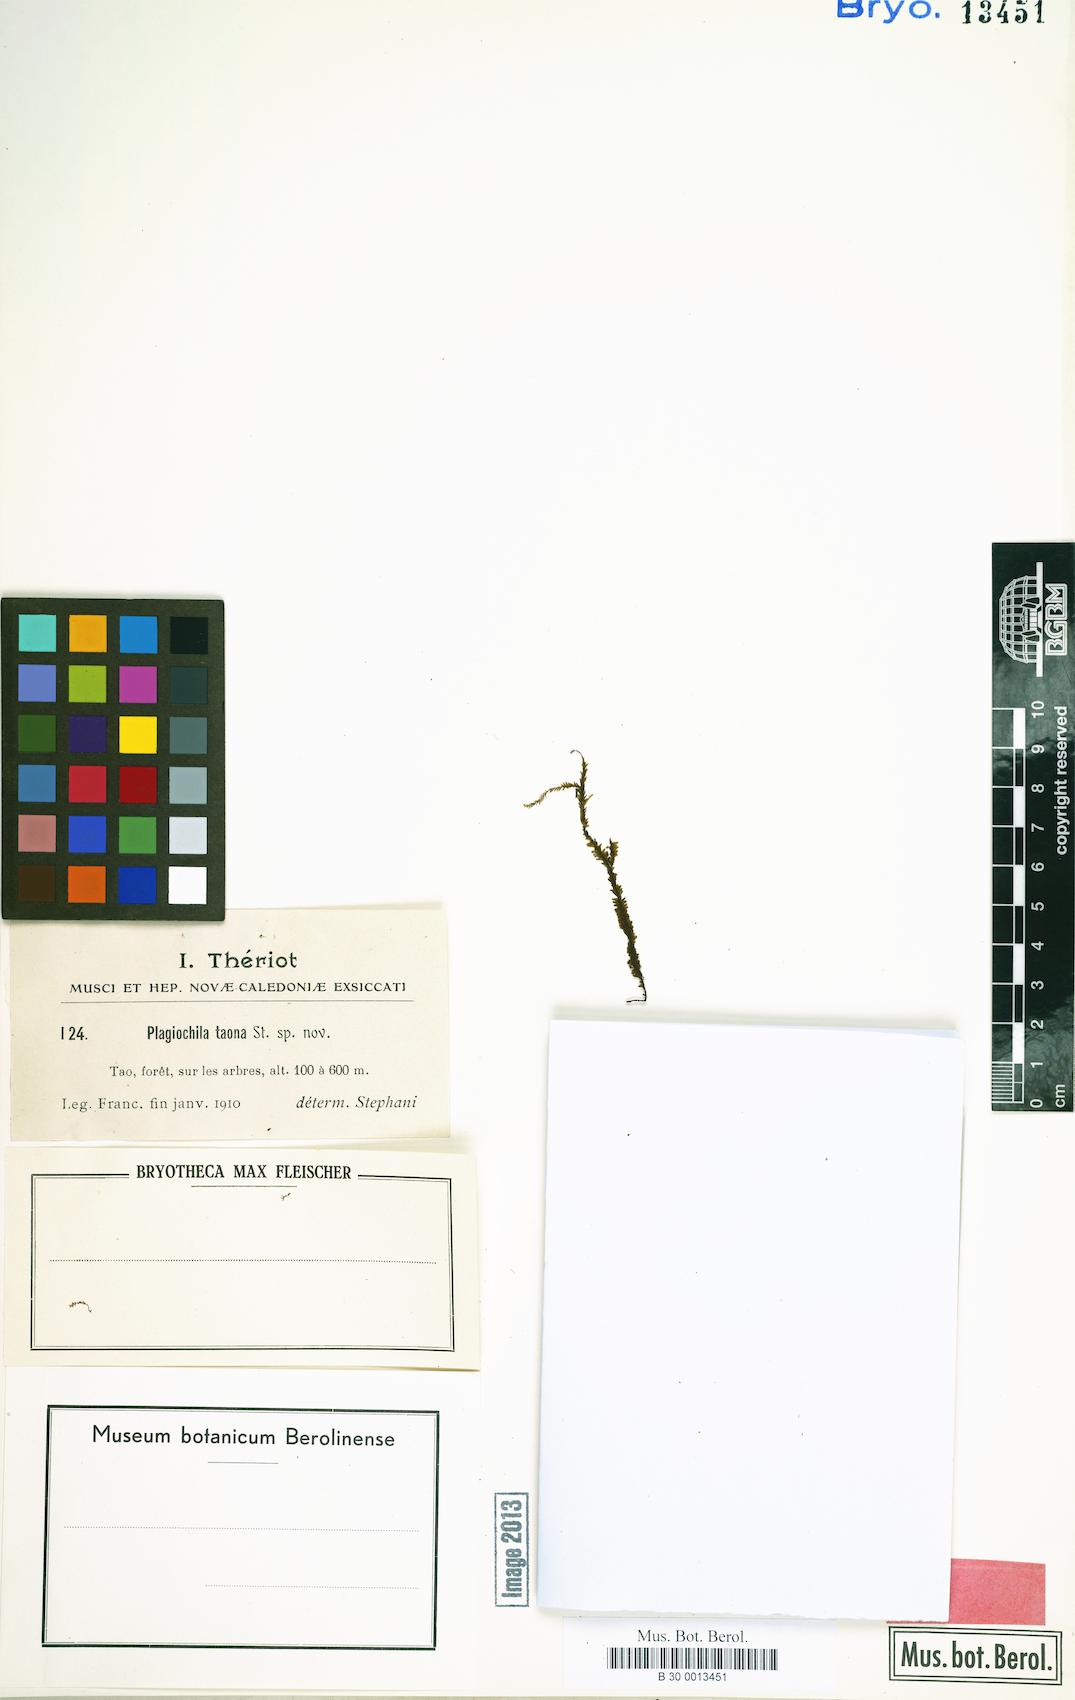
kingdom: Plantae
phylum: Marchantiophyta
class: Jungermanniopsida
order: Jungermanniales
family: Plagiochilaceae
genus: Plagiochila
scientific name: Plagiochila alta
